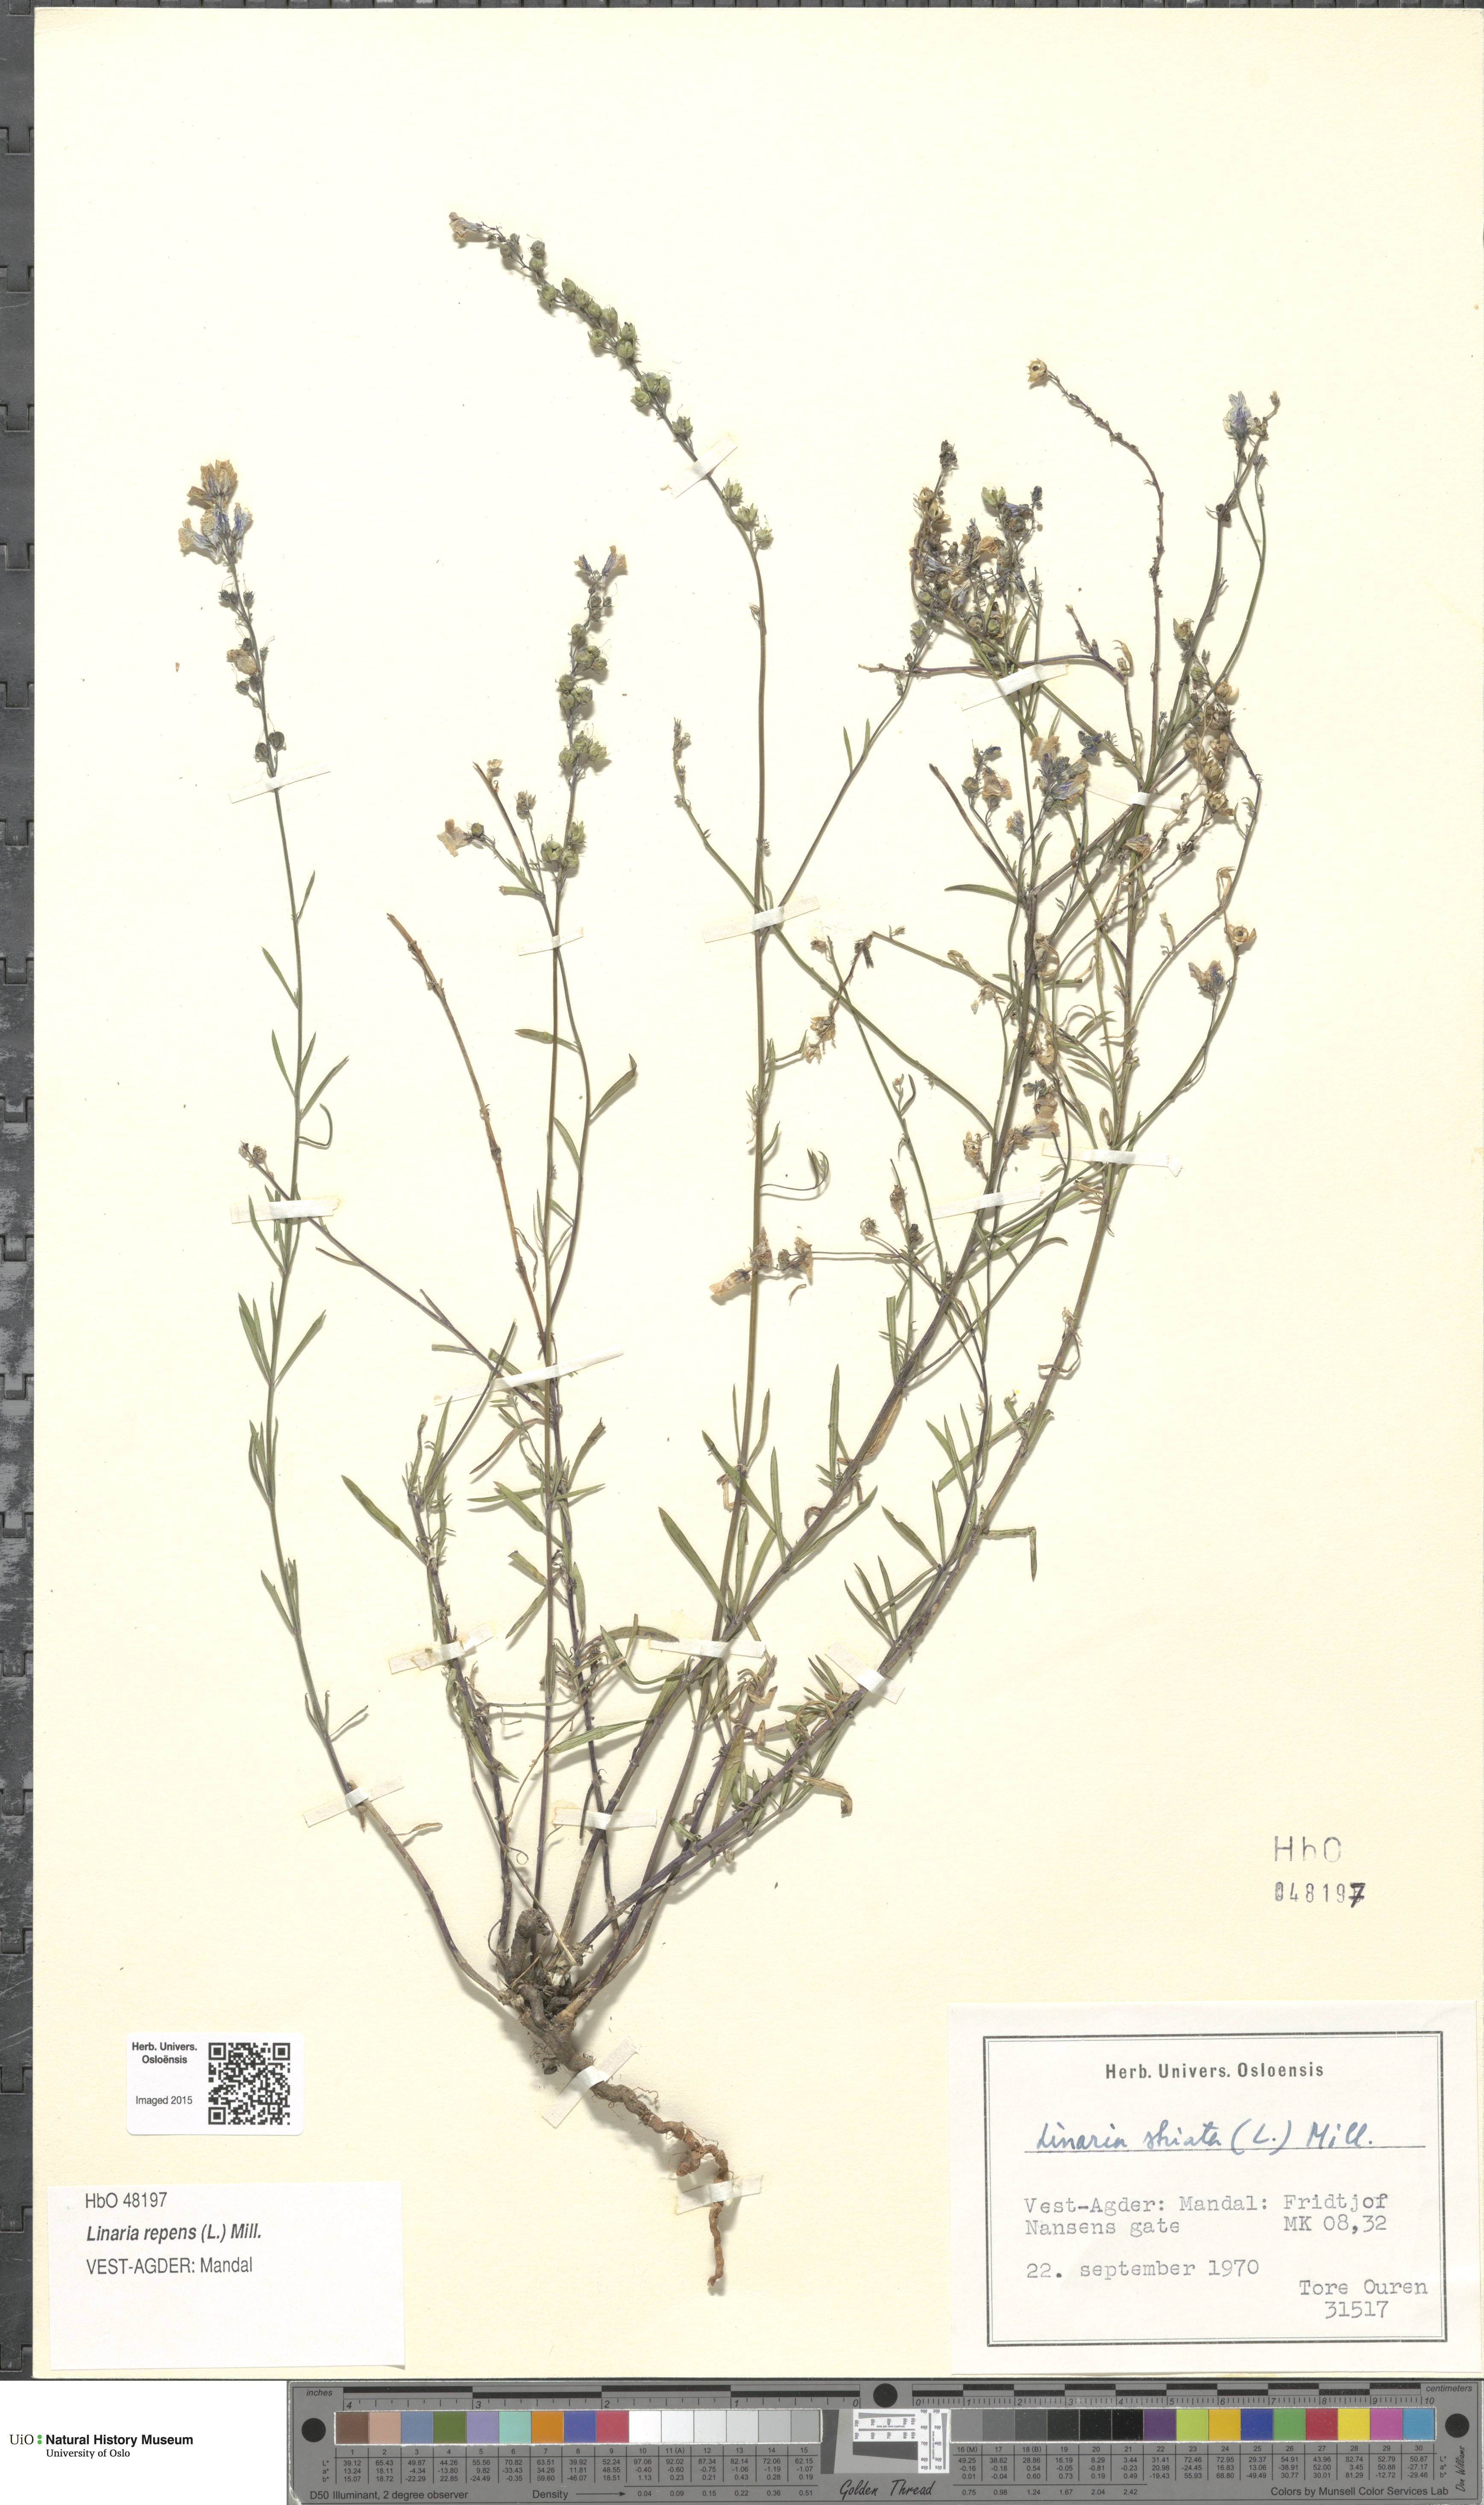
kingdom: Plantae
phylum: Tracheophyta
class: Magnoliopsida
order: Lamiales
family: Plantaginaceae
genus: Linaria
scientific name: Linaria repens
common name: Pale toadflax
